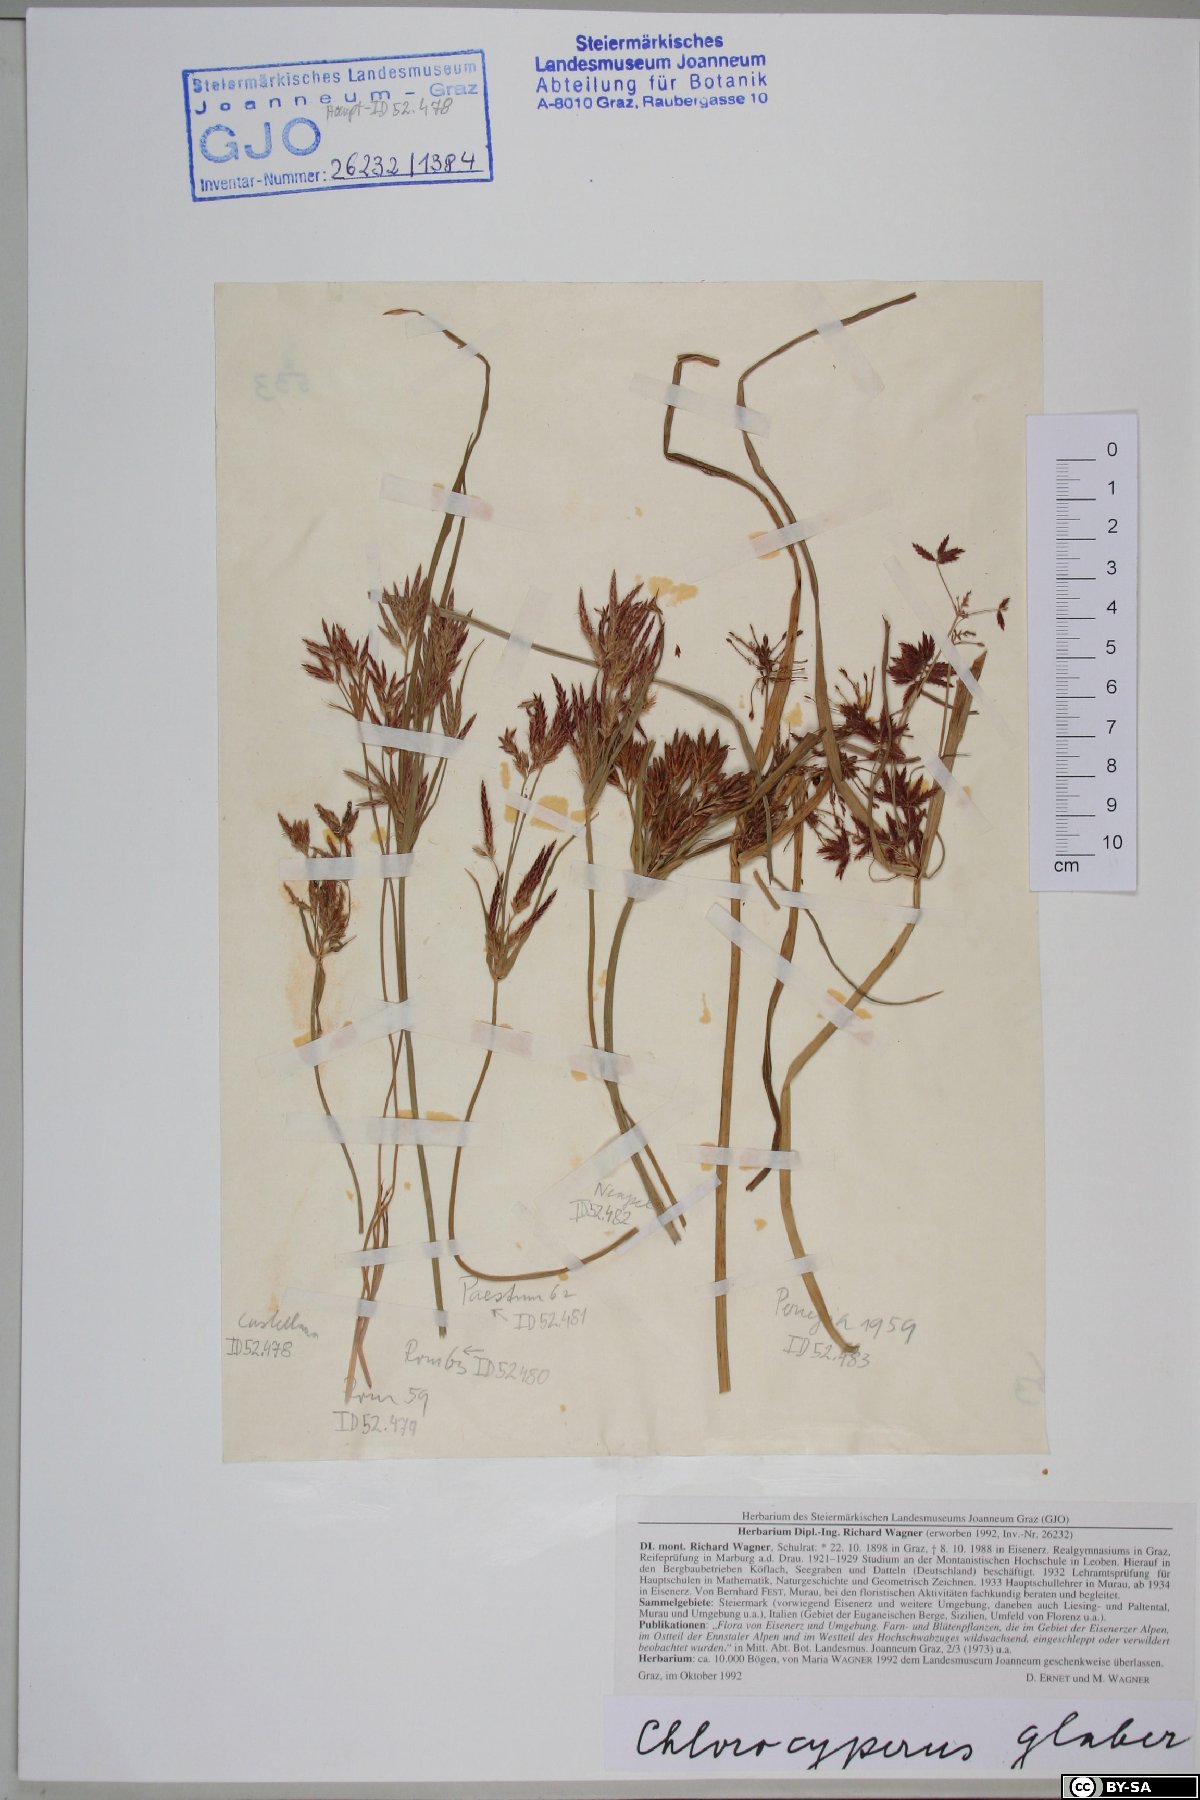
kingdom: Plantae
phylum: Tracheophyta
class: Liliopsida
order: Poales
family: Cyperaceae
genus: Cyperus
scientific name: Cyperus glaber
